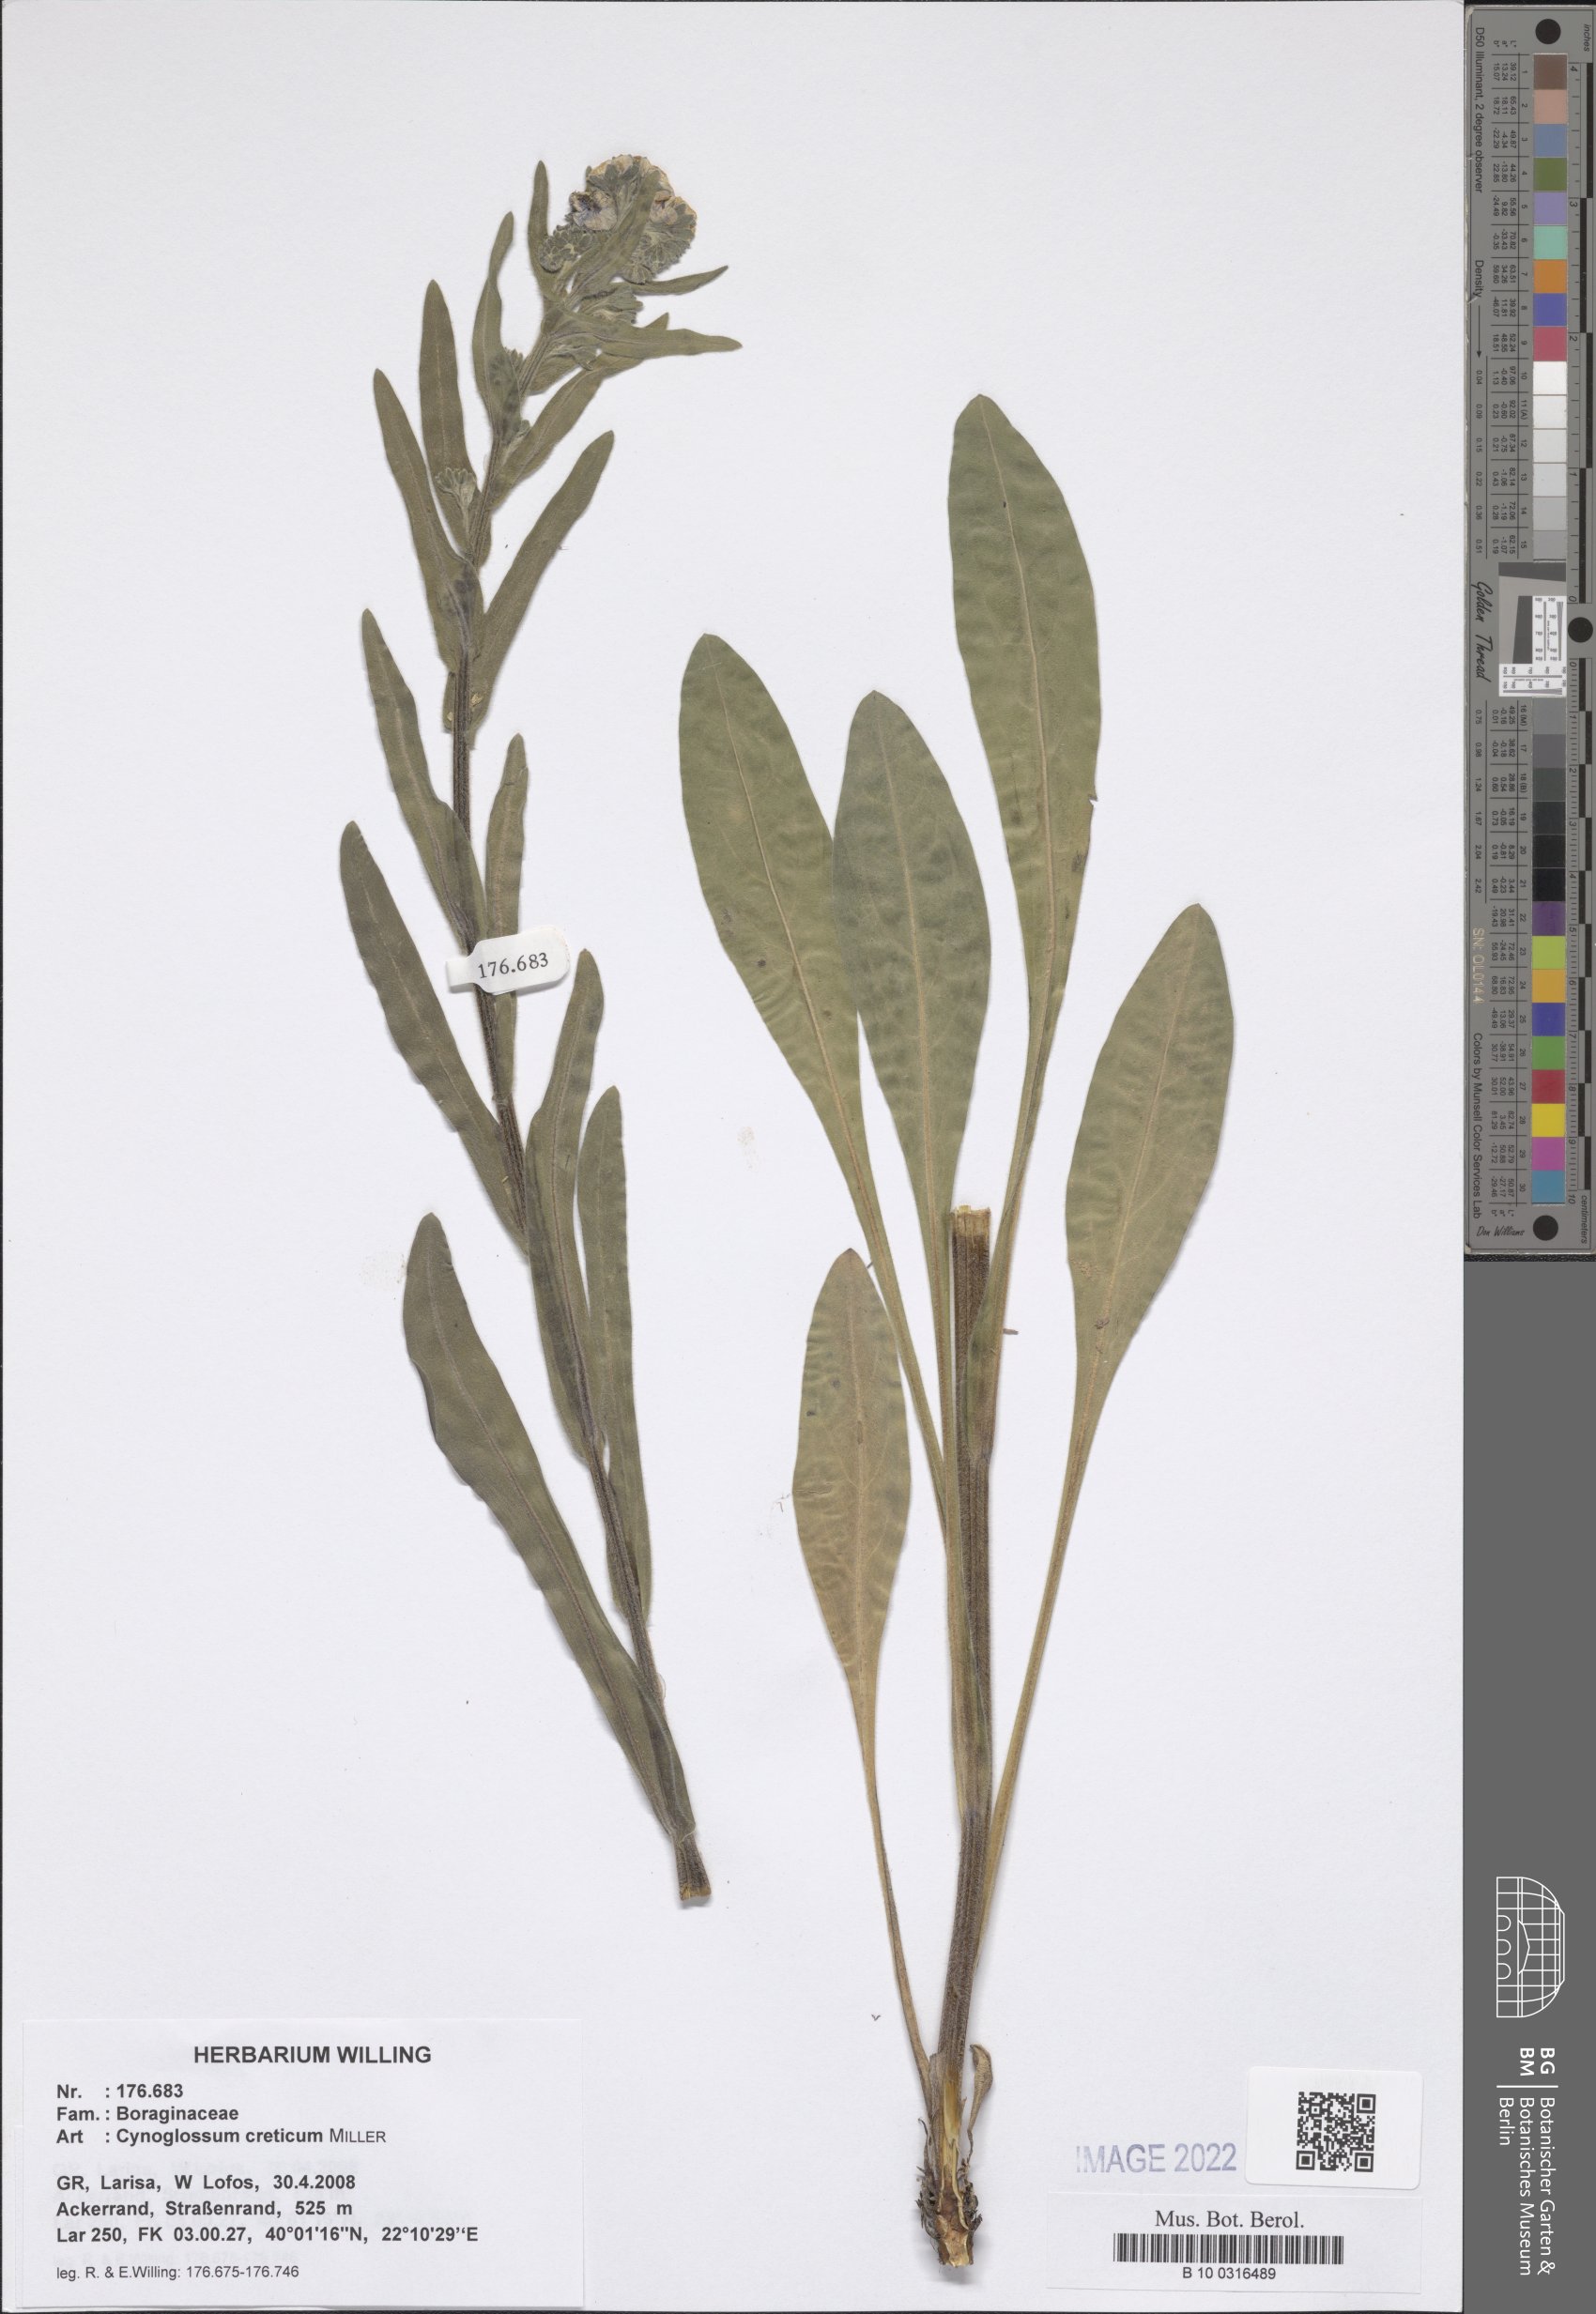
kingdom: Plantae
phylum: Tracheophyta
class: Magnoliopsida
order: Boraginales
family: Boraginaceae
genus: Cynoglossum
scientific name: Cynoglossum creticum
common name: Blue hound's tongue
